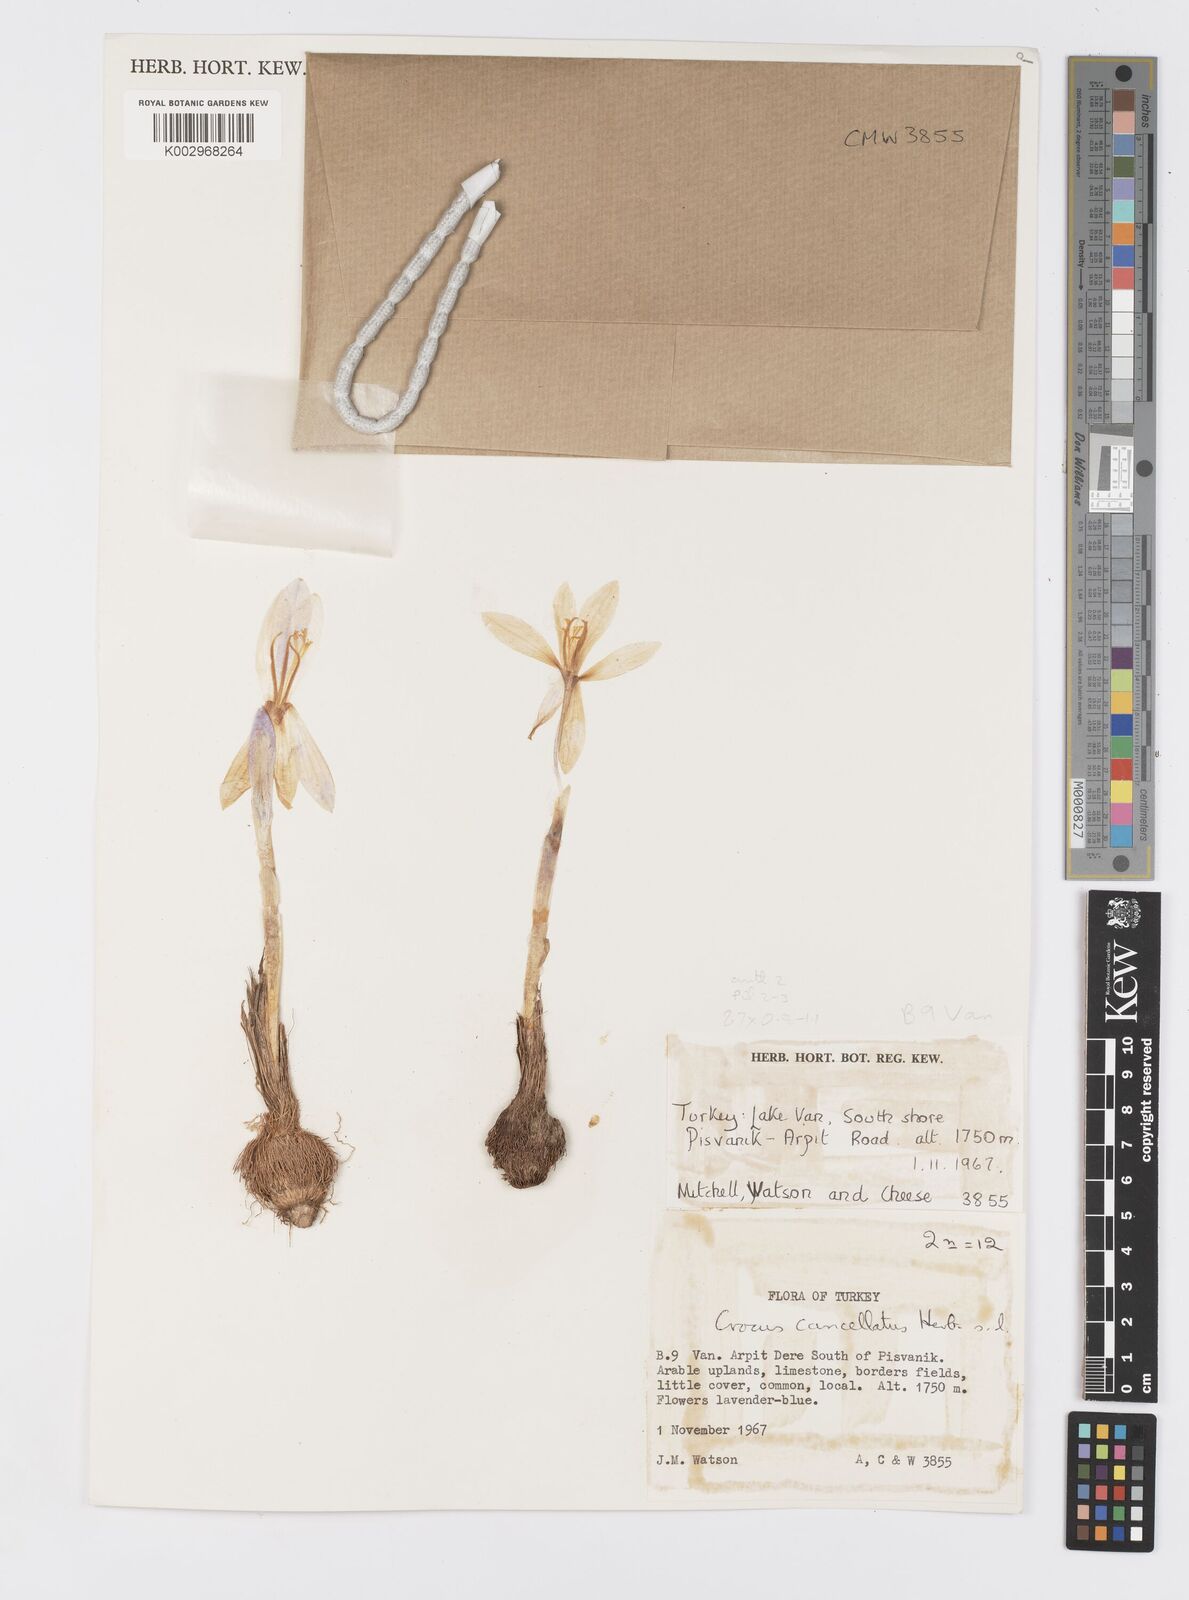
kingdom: Plantae
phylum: Tracheophyta
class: Liliopsida
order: Asparagales
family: Iridaceae
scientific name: Iridaceae
